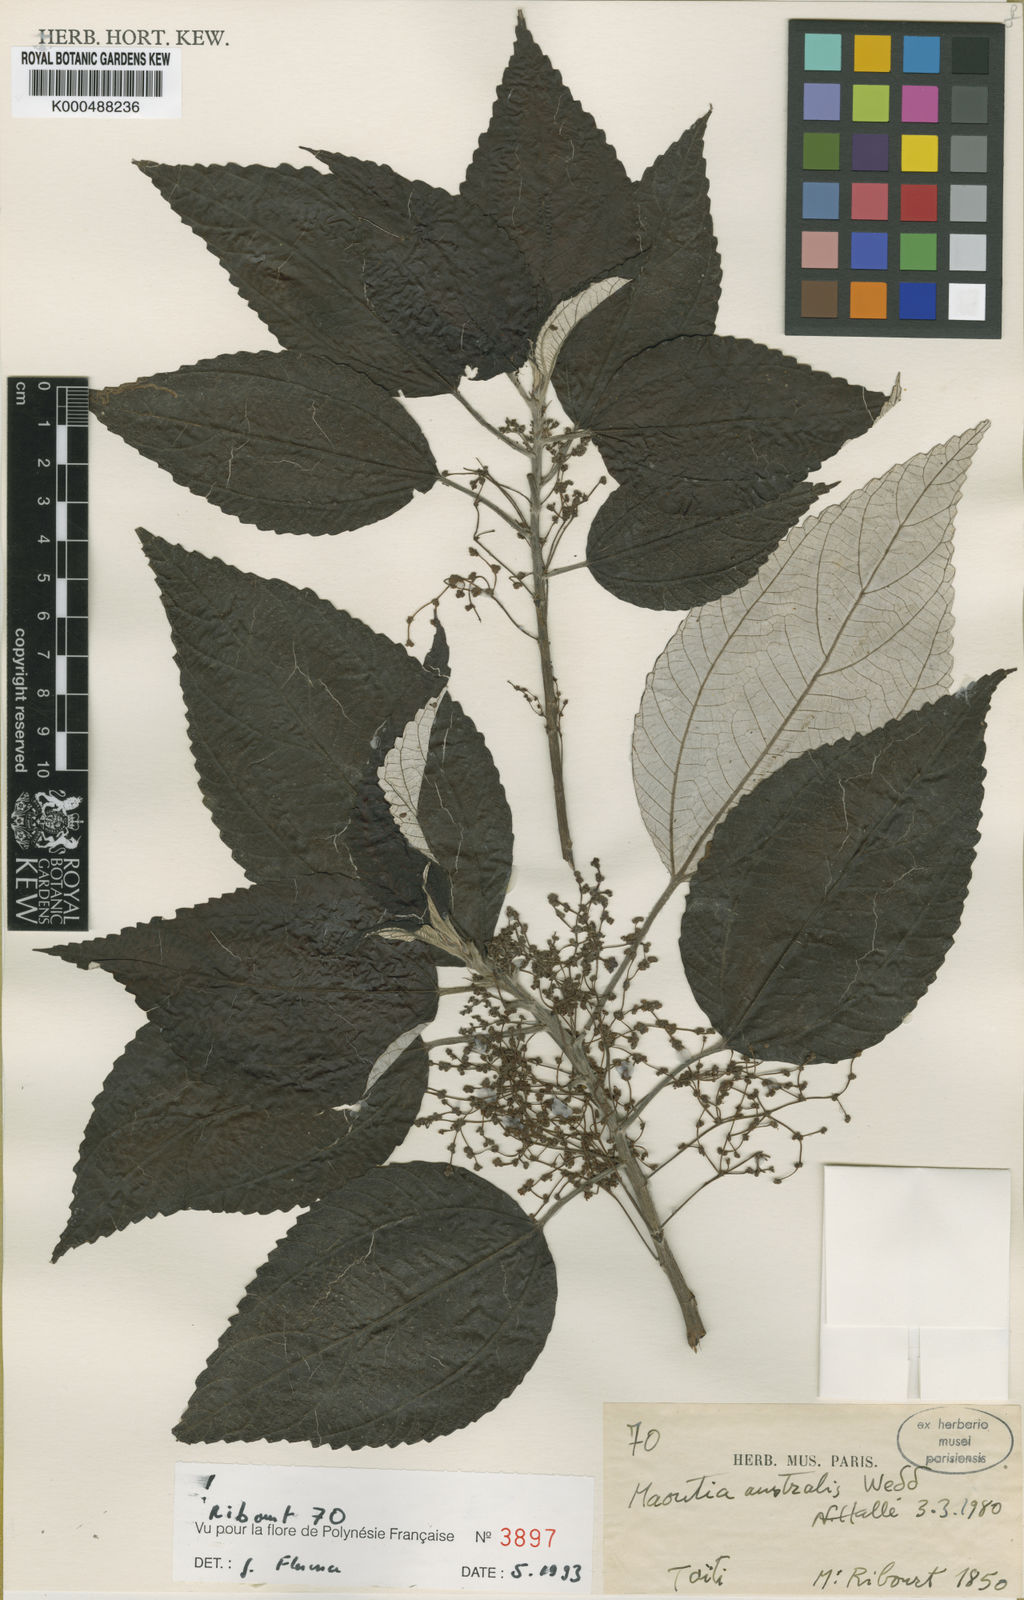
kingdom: Plantae
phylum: Tracheophyta
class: Magnoliopsida
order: Rosales
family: Urticaceae
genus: Maoutia
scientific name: Maoutia australis
